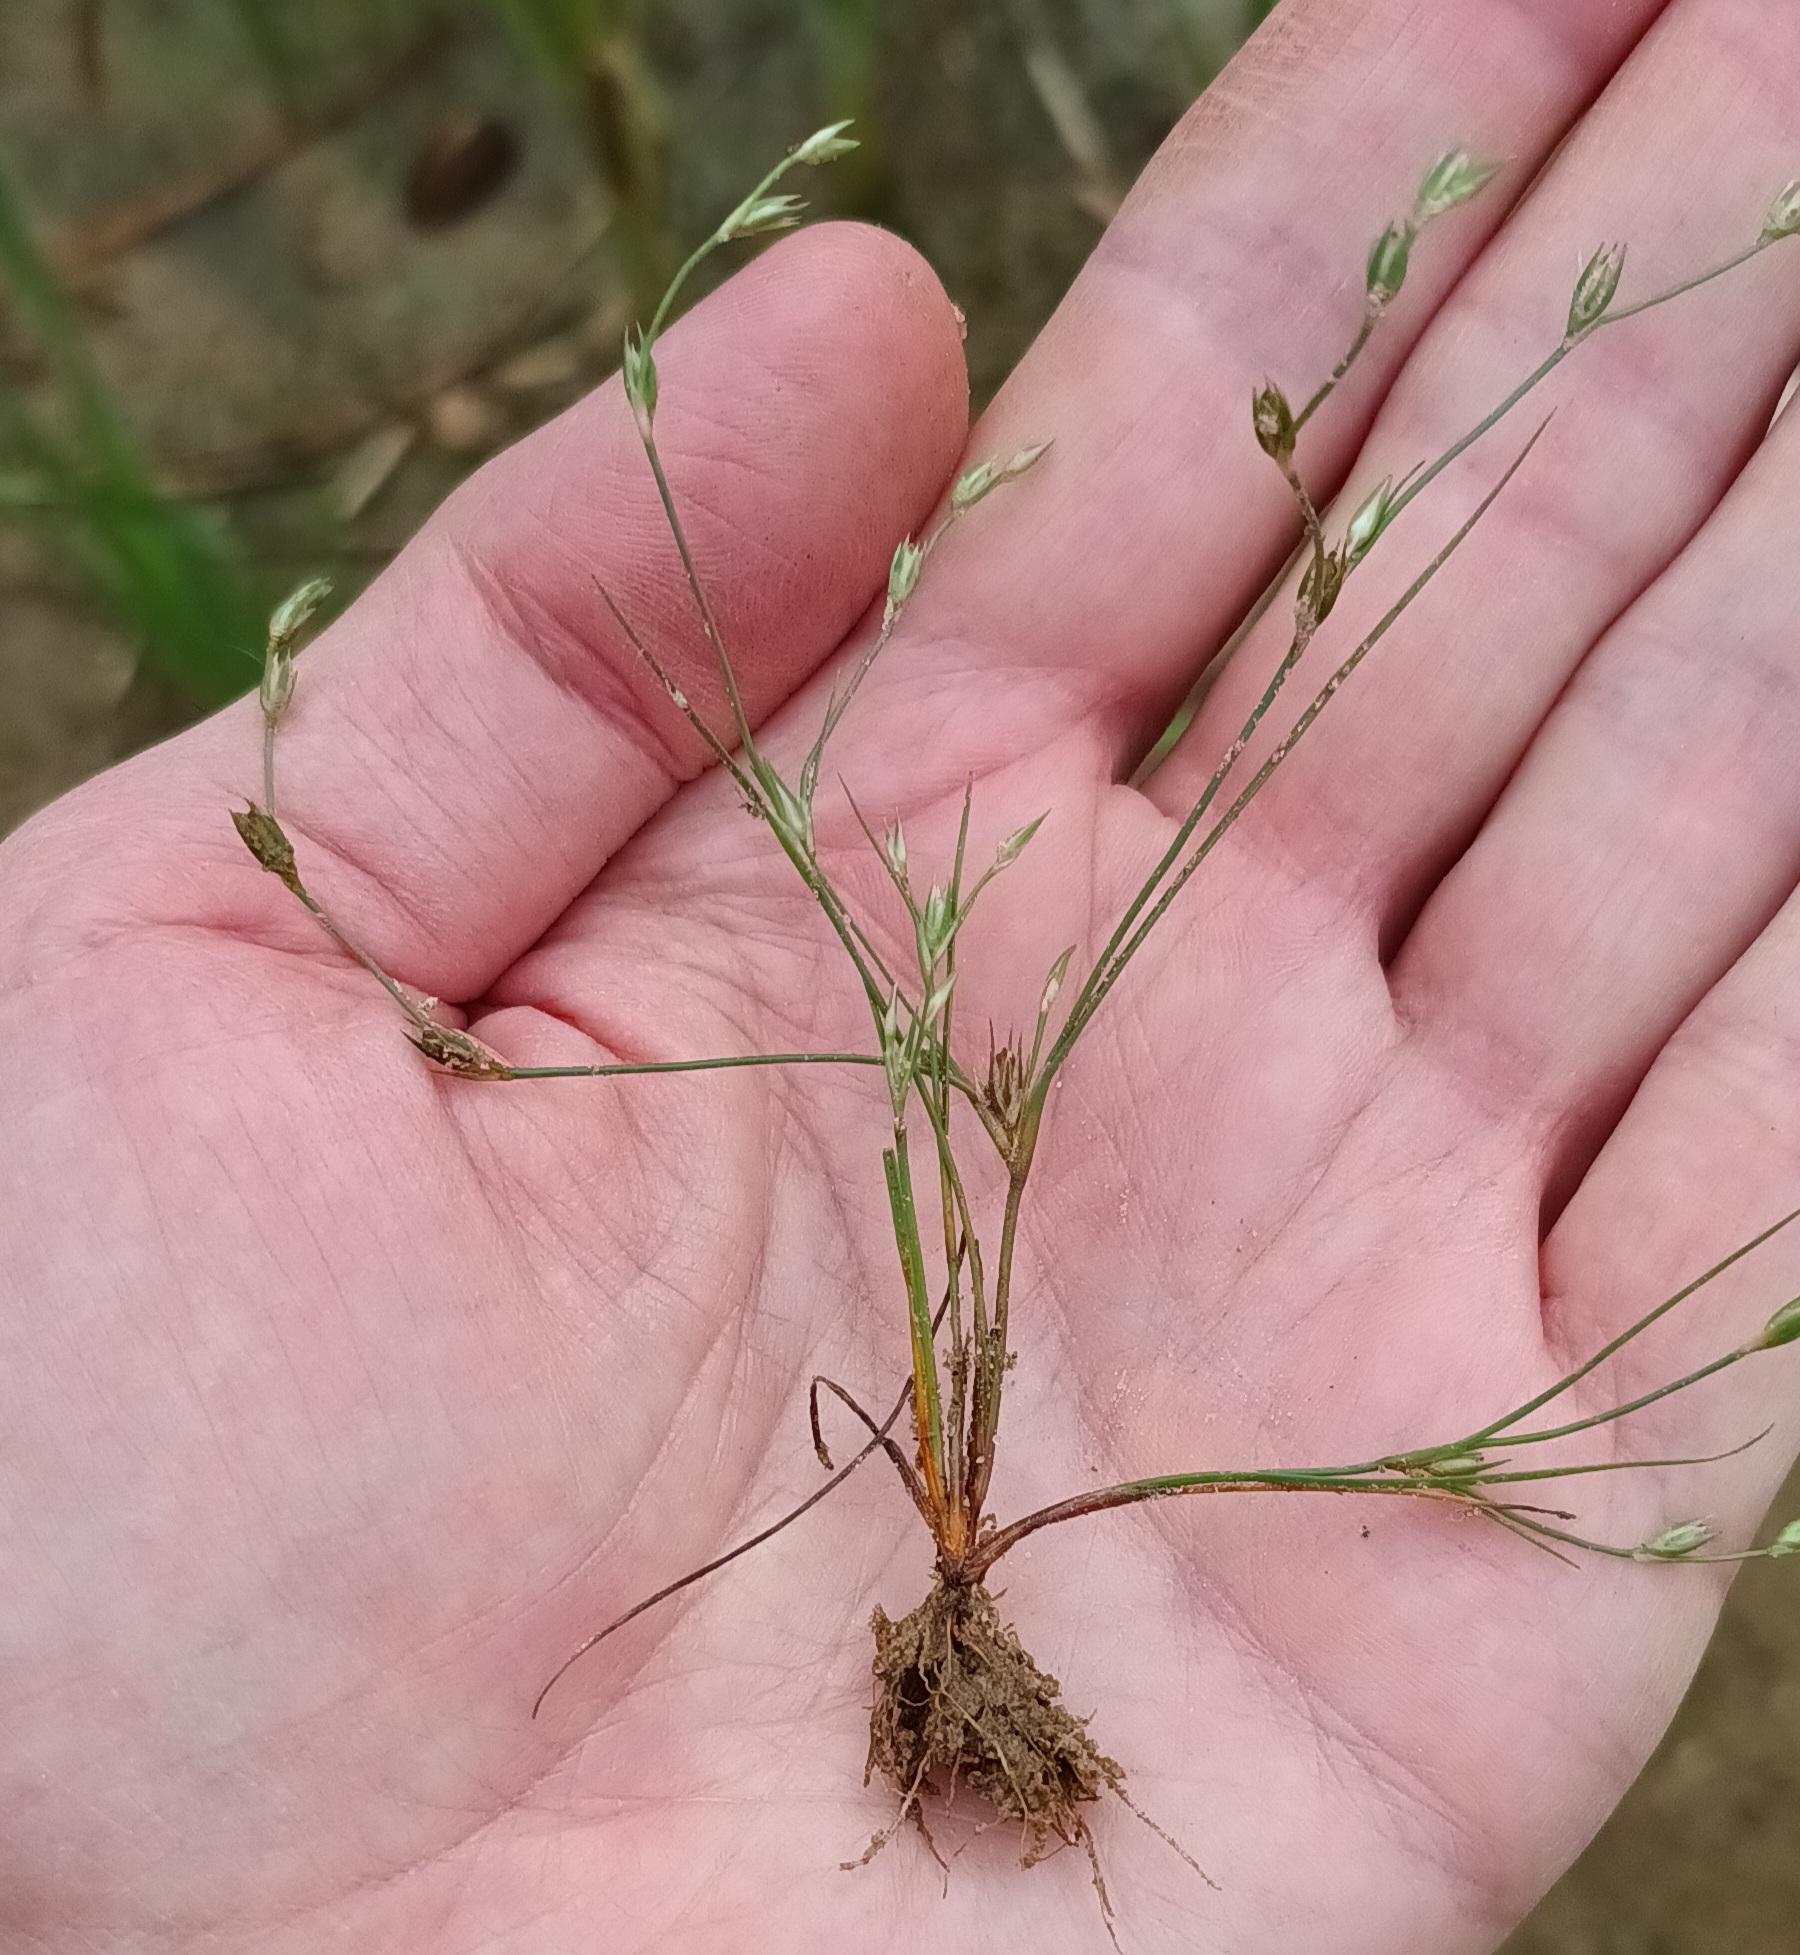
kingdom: Plantae
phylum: Tracheophyta
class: Liliopsida
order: Poales
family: Juncaceae
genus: Juncus
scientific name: Juncus bufonius
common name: Tudse-siv
